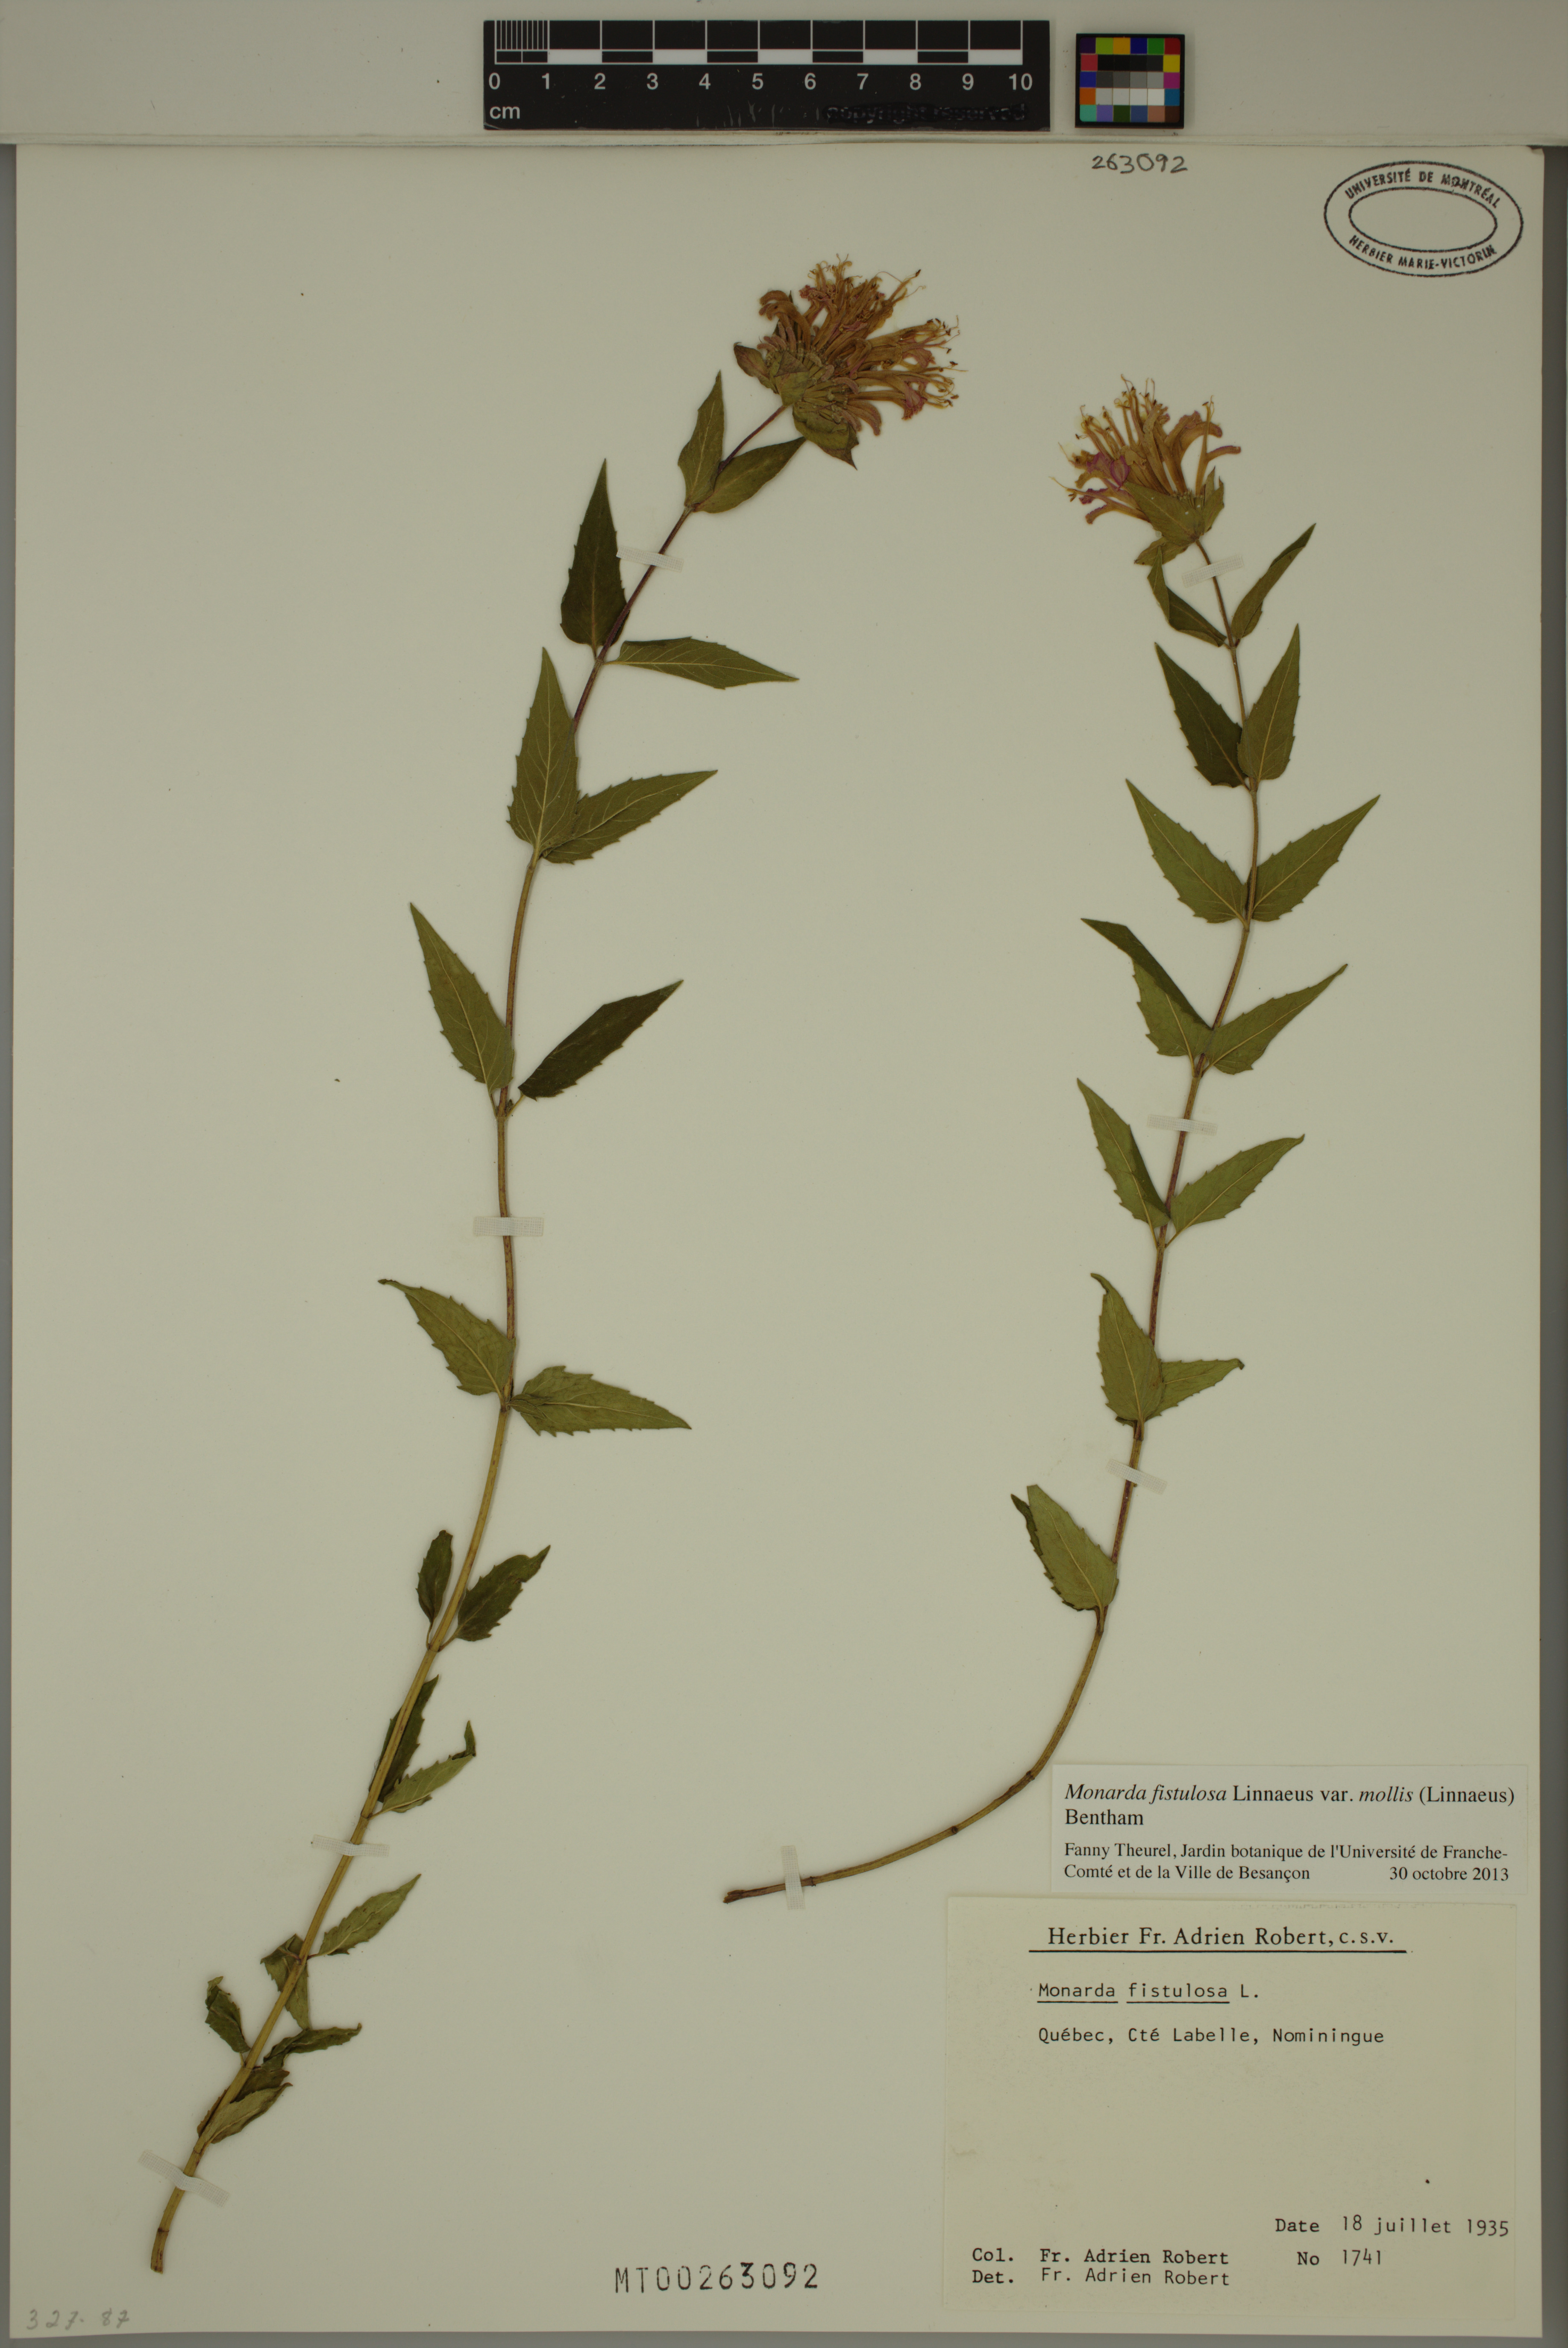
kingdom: Plantae
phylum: Tracheophyta
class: Magnoliopsida
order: Lamiales
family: Lamiaceae
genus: Monarda
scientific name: Monarda fistulosa
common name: Purple beebalm
